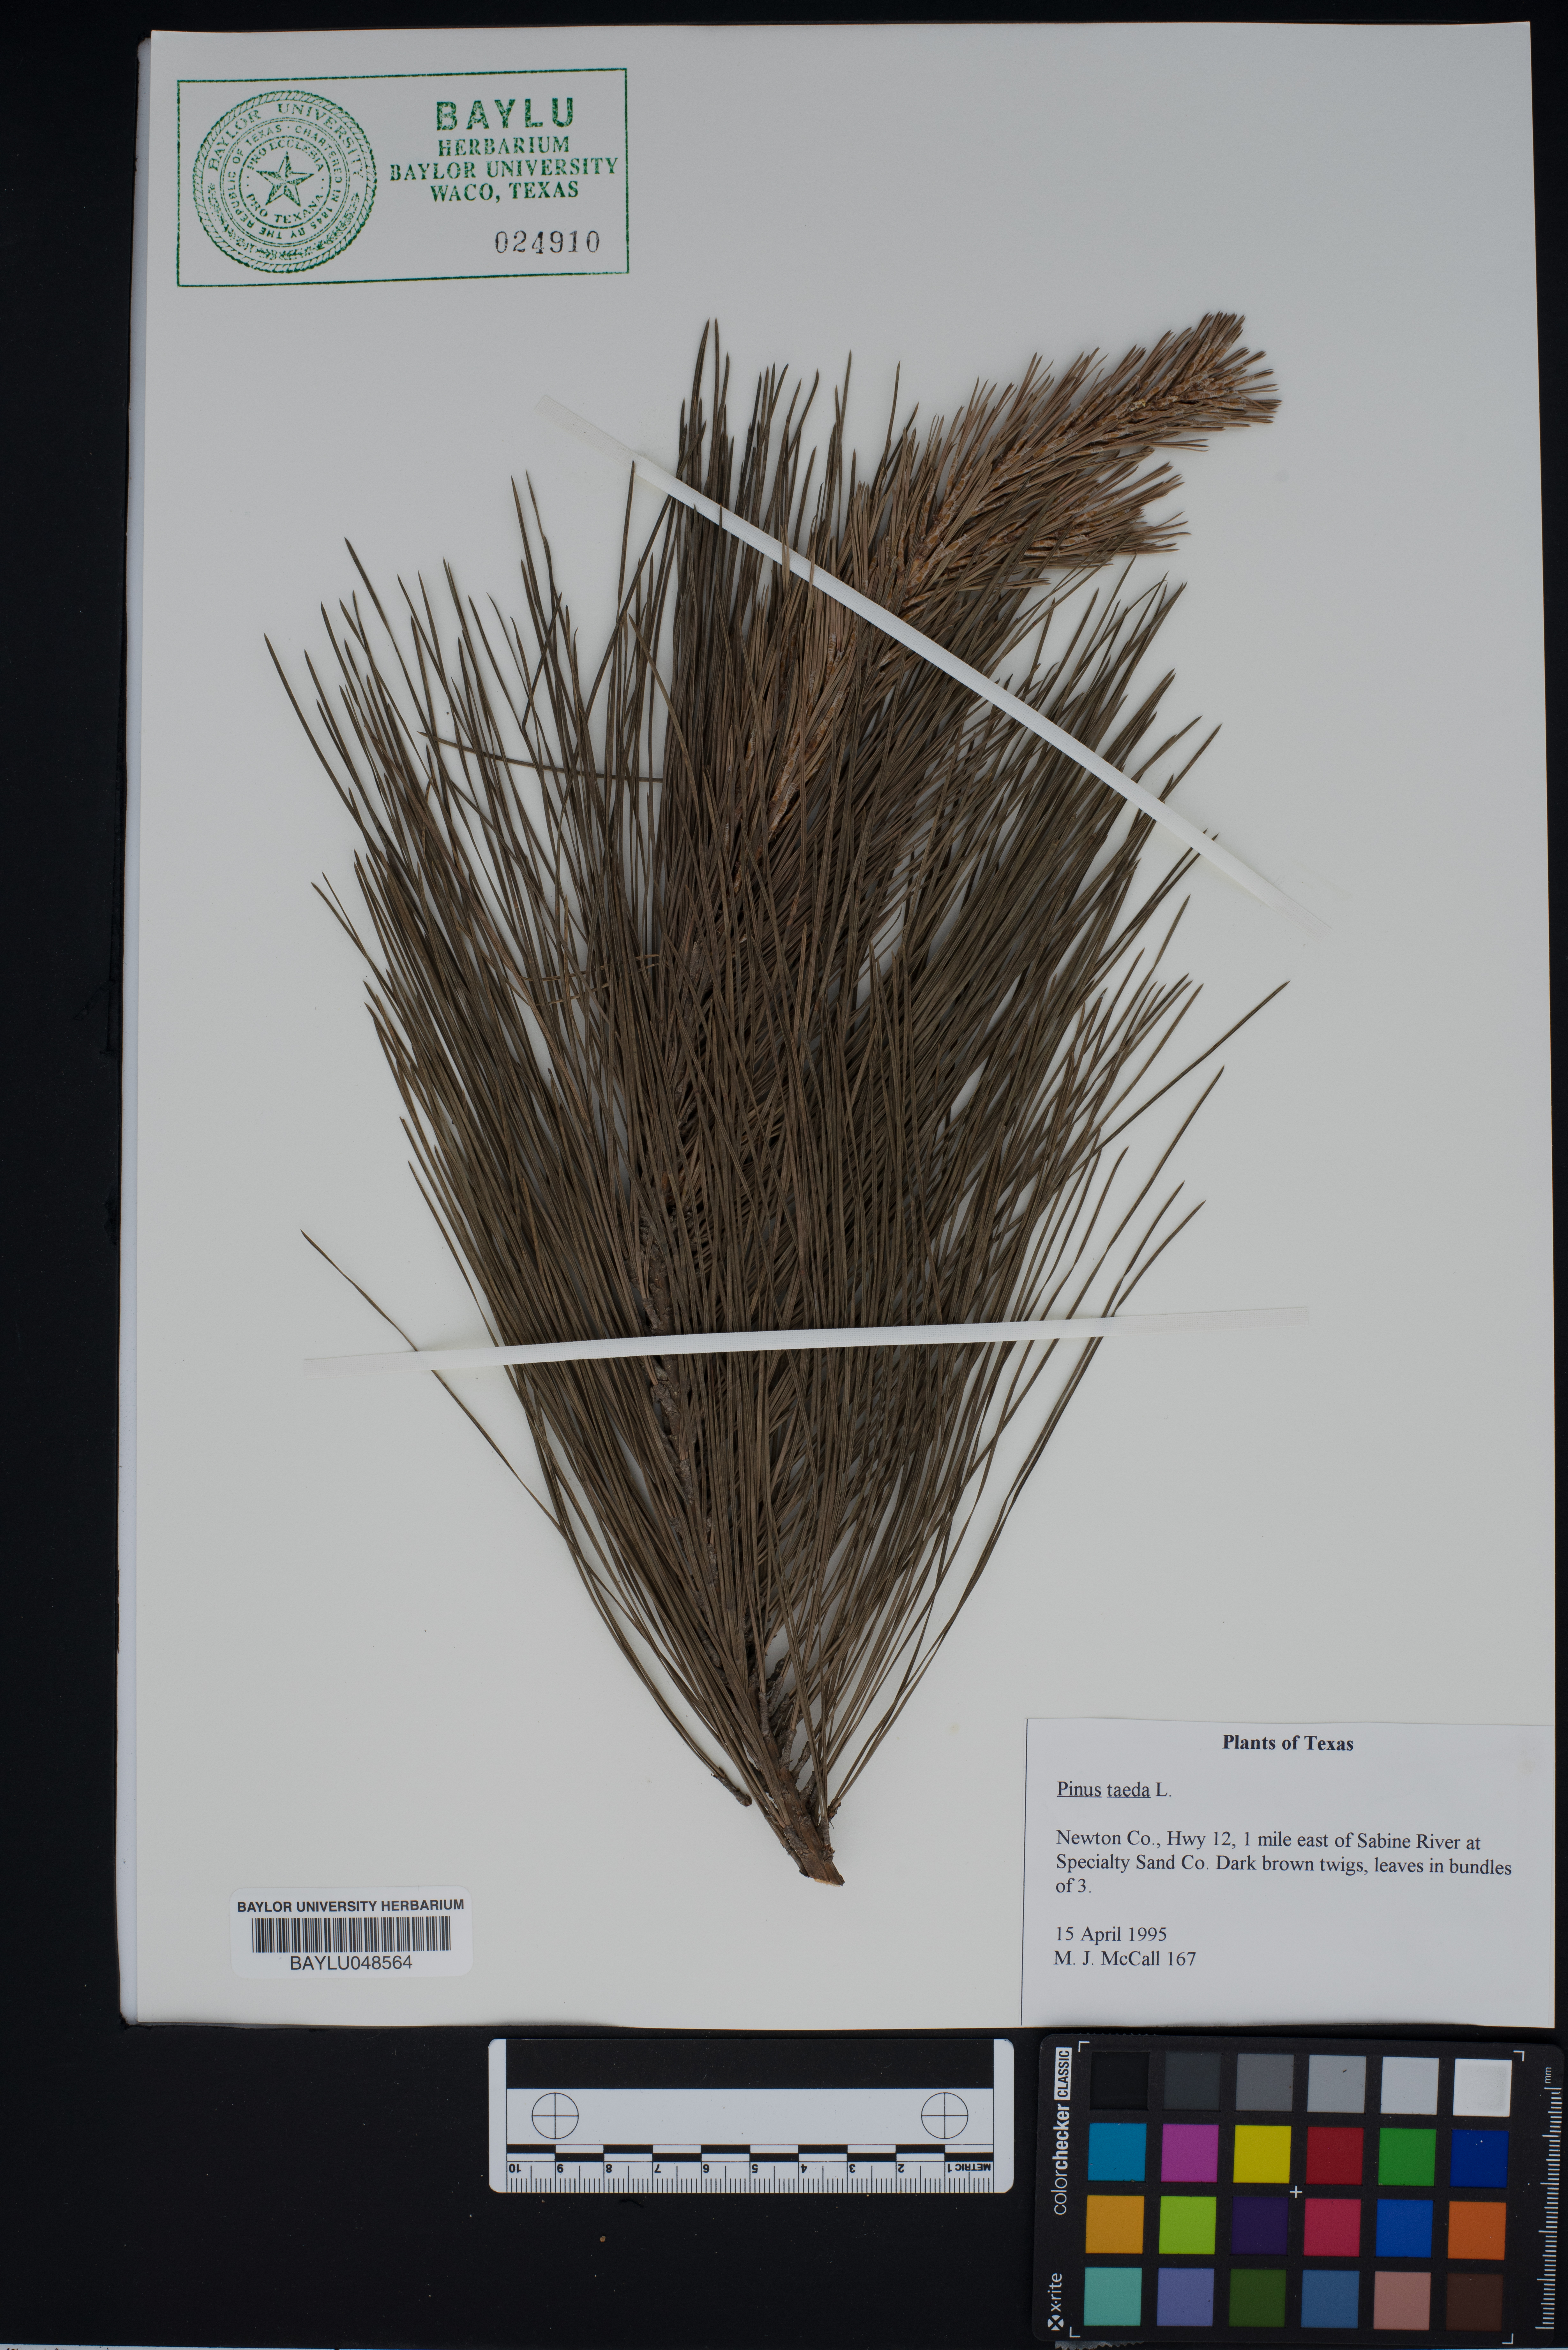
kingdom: Plantae
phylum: Tracheophyta
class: Pinopsida
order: Pinales
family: Pinaceae
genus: Pinus
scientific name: Pinus taeda
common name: Loblolly pine
